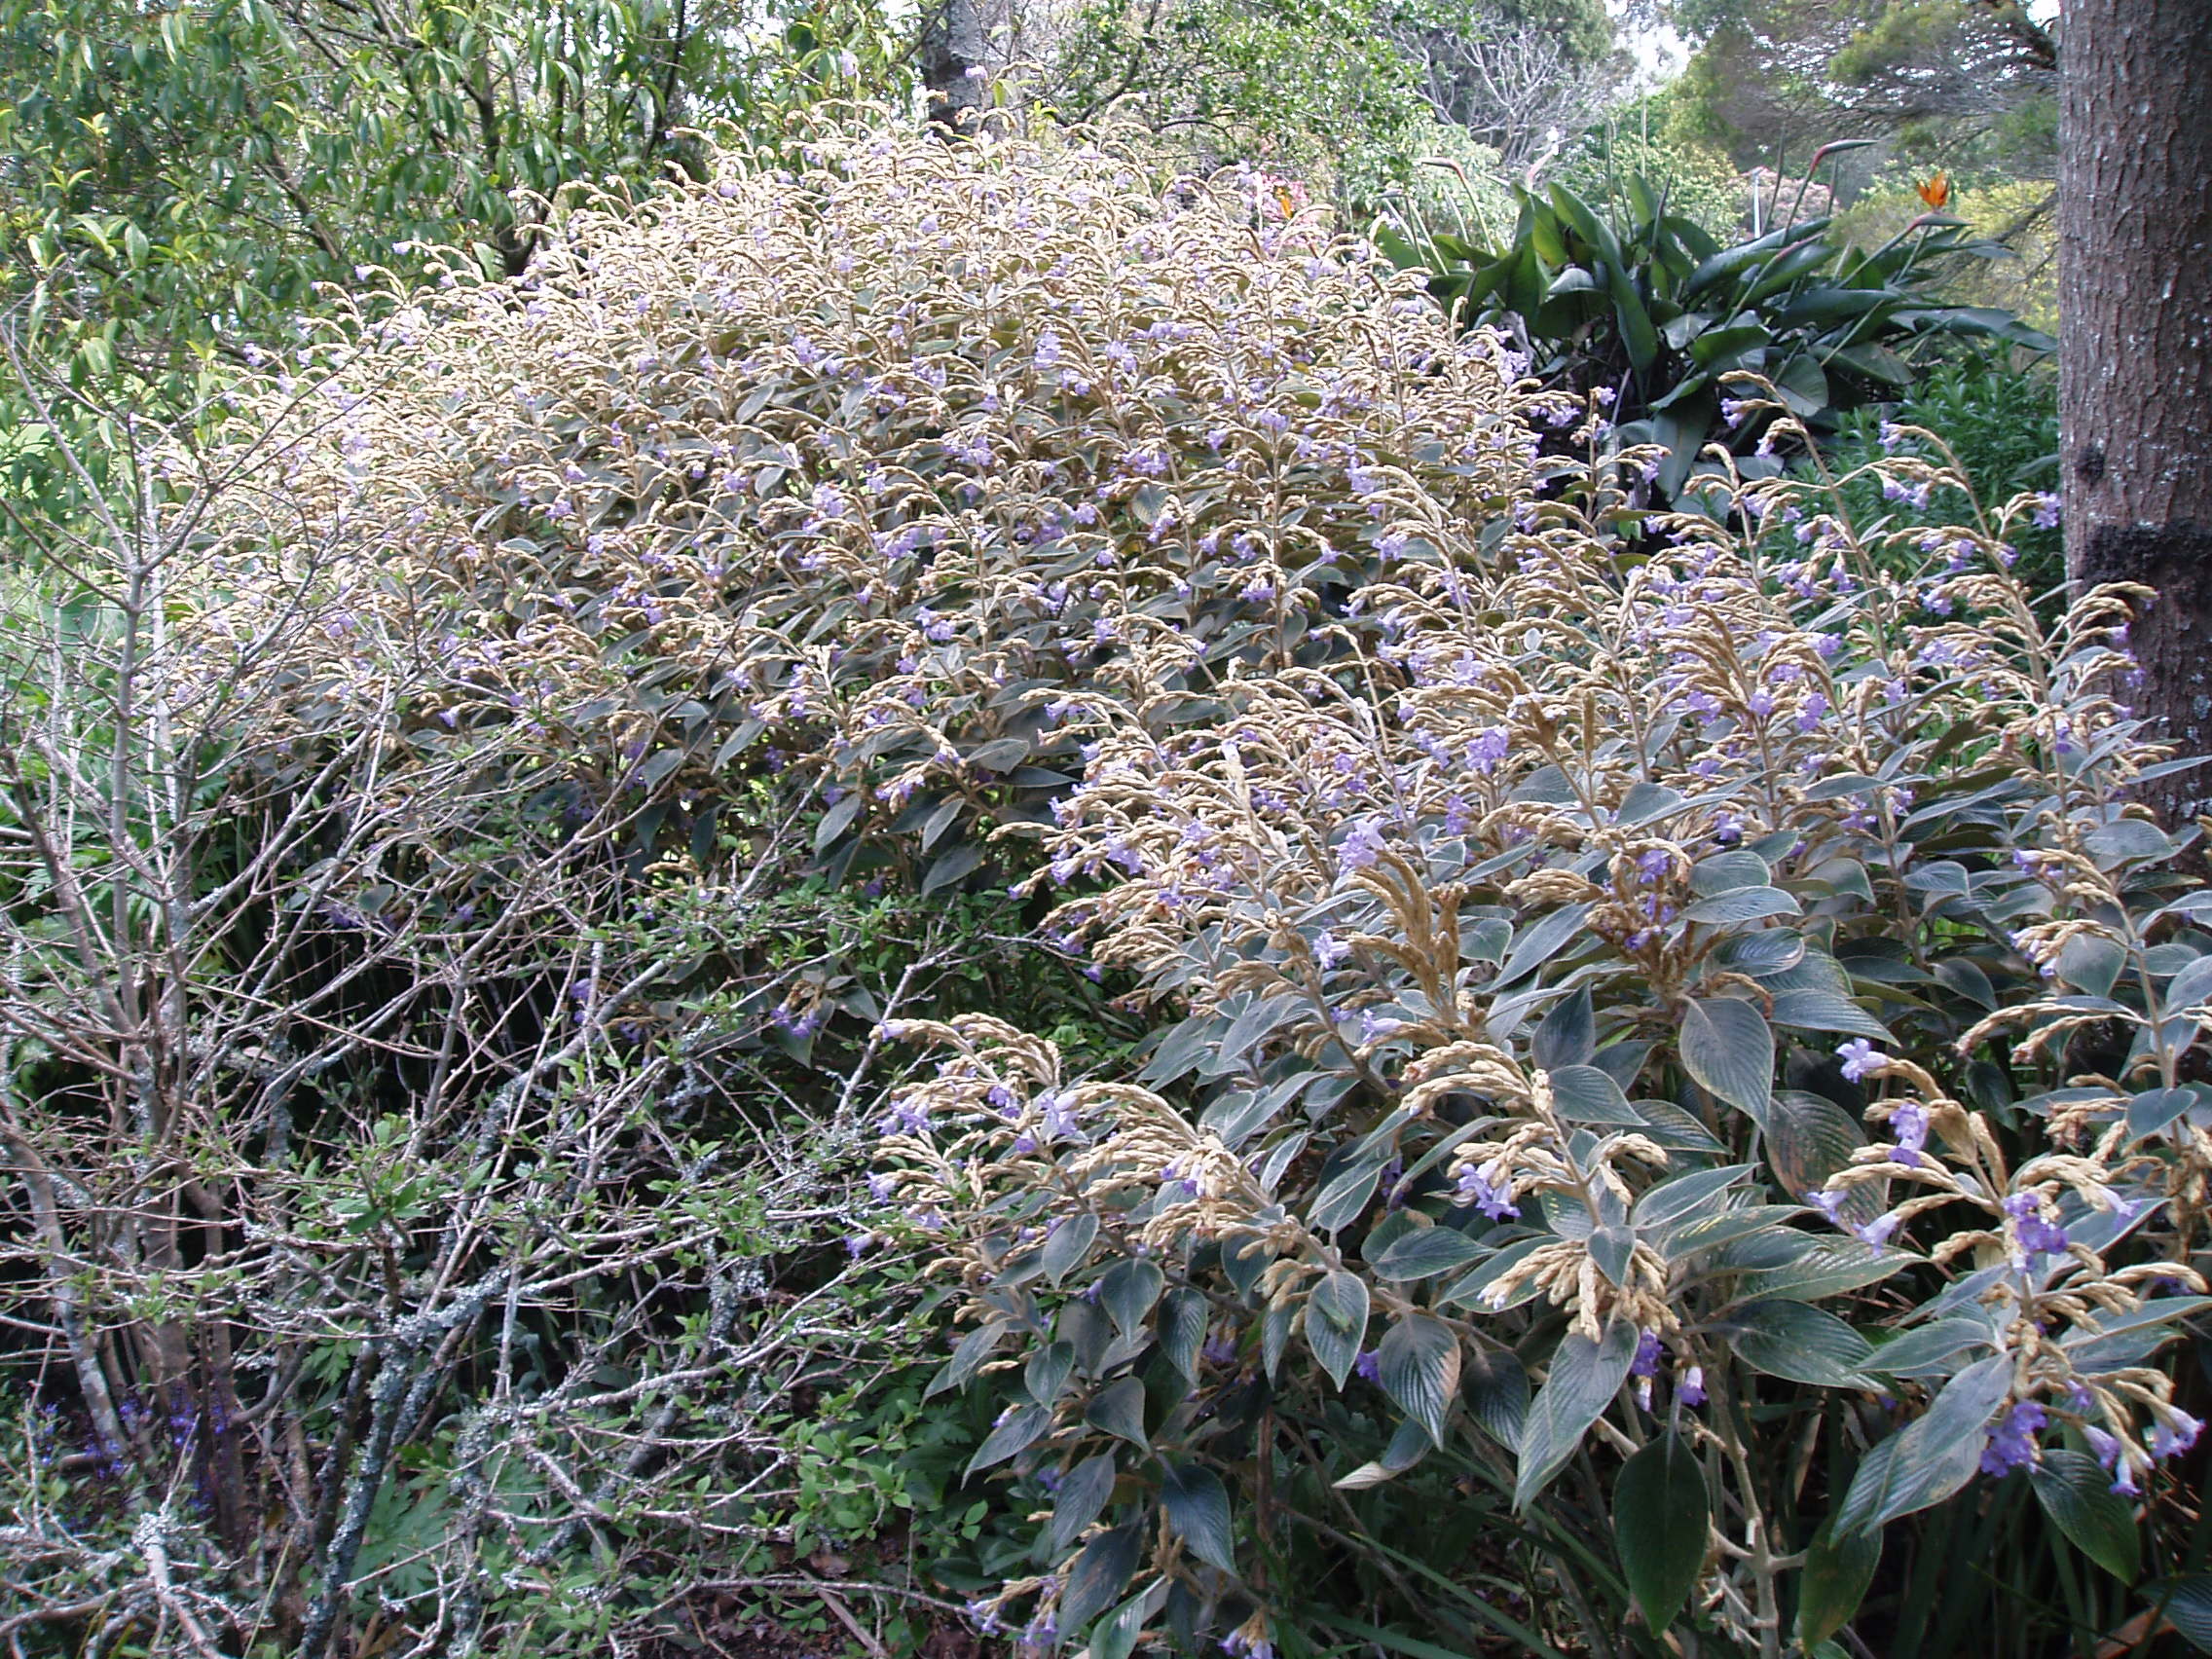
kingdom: Plantae
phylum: Tracheophyta
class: Magnoliopsida
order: Lamiales
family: Acanthaceae
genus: Strobilanthes
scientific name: Strobilanthes lanata
